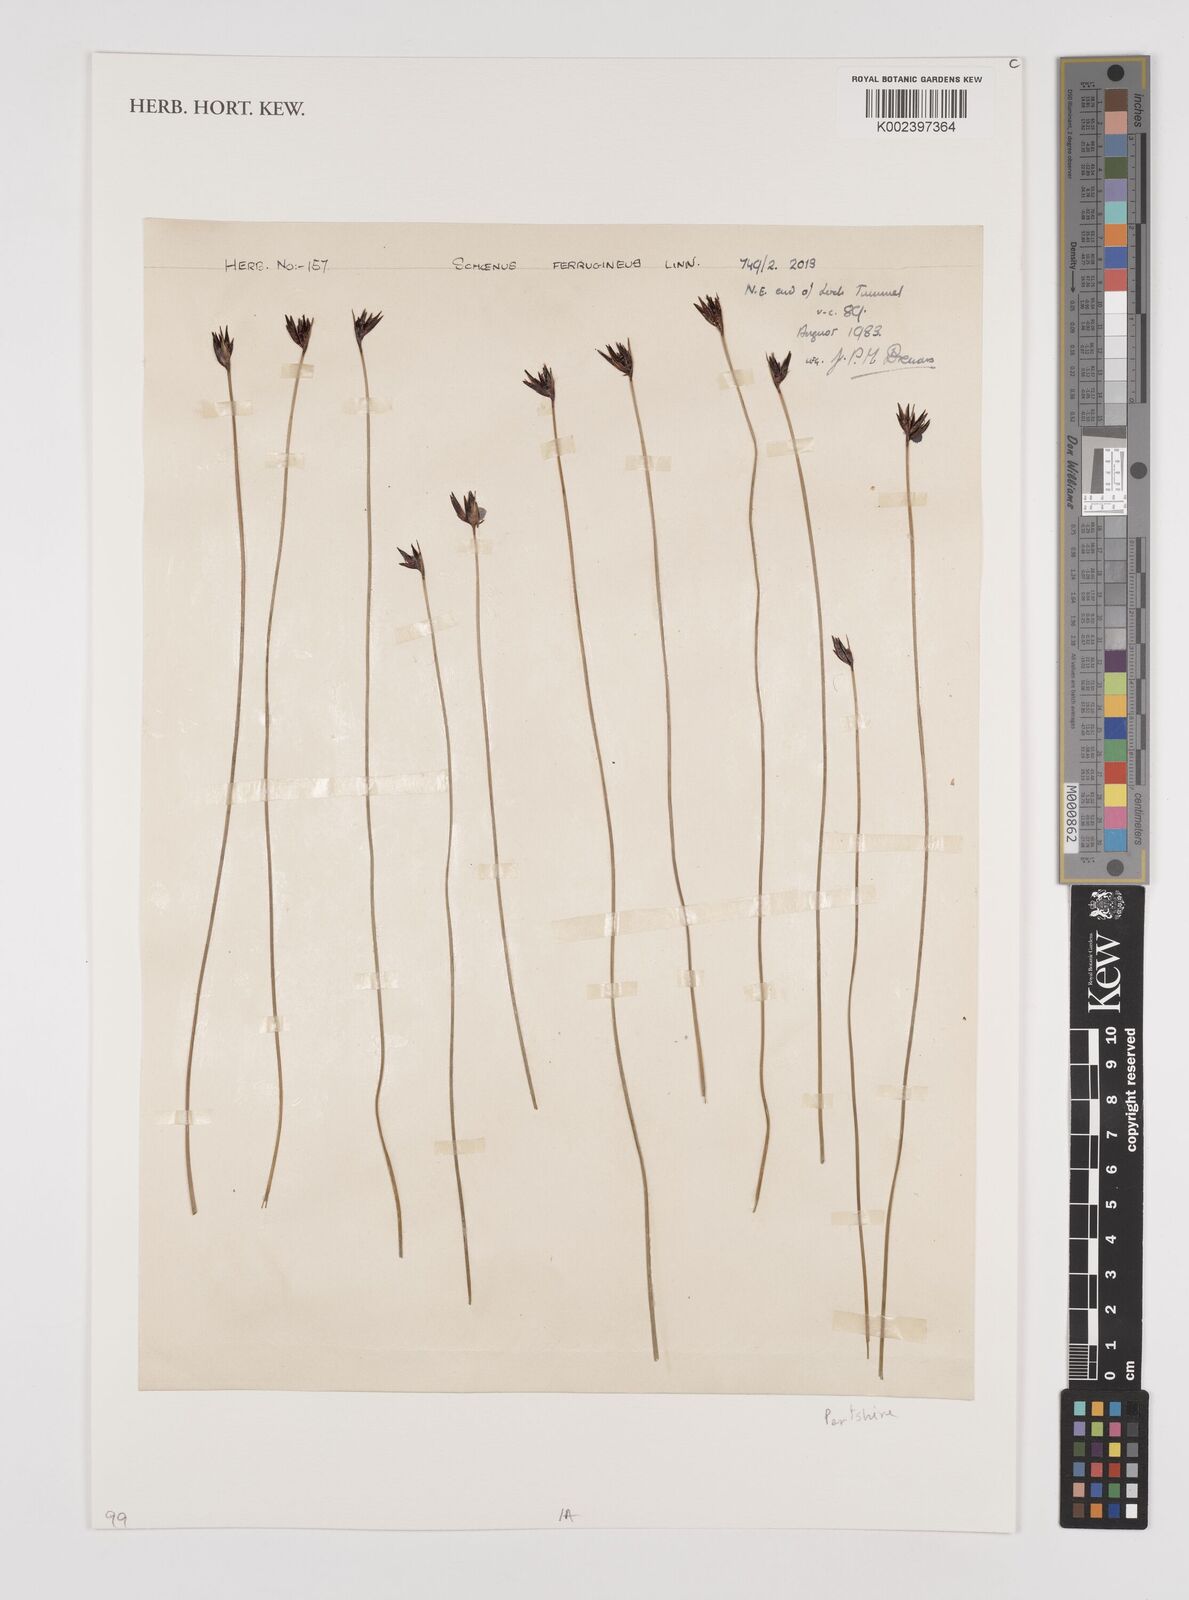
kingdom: Plantae
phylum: Tracheophyta
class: Liliopsida
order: Poales
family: Cyperaceae
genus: Schoenus
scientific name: Schoenus ferrugineus
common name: Brown bog-rush
